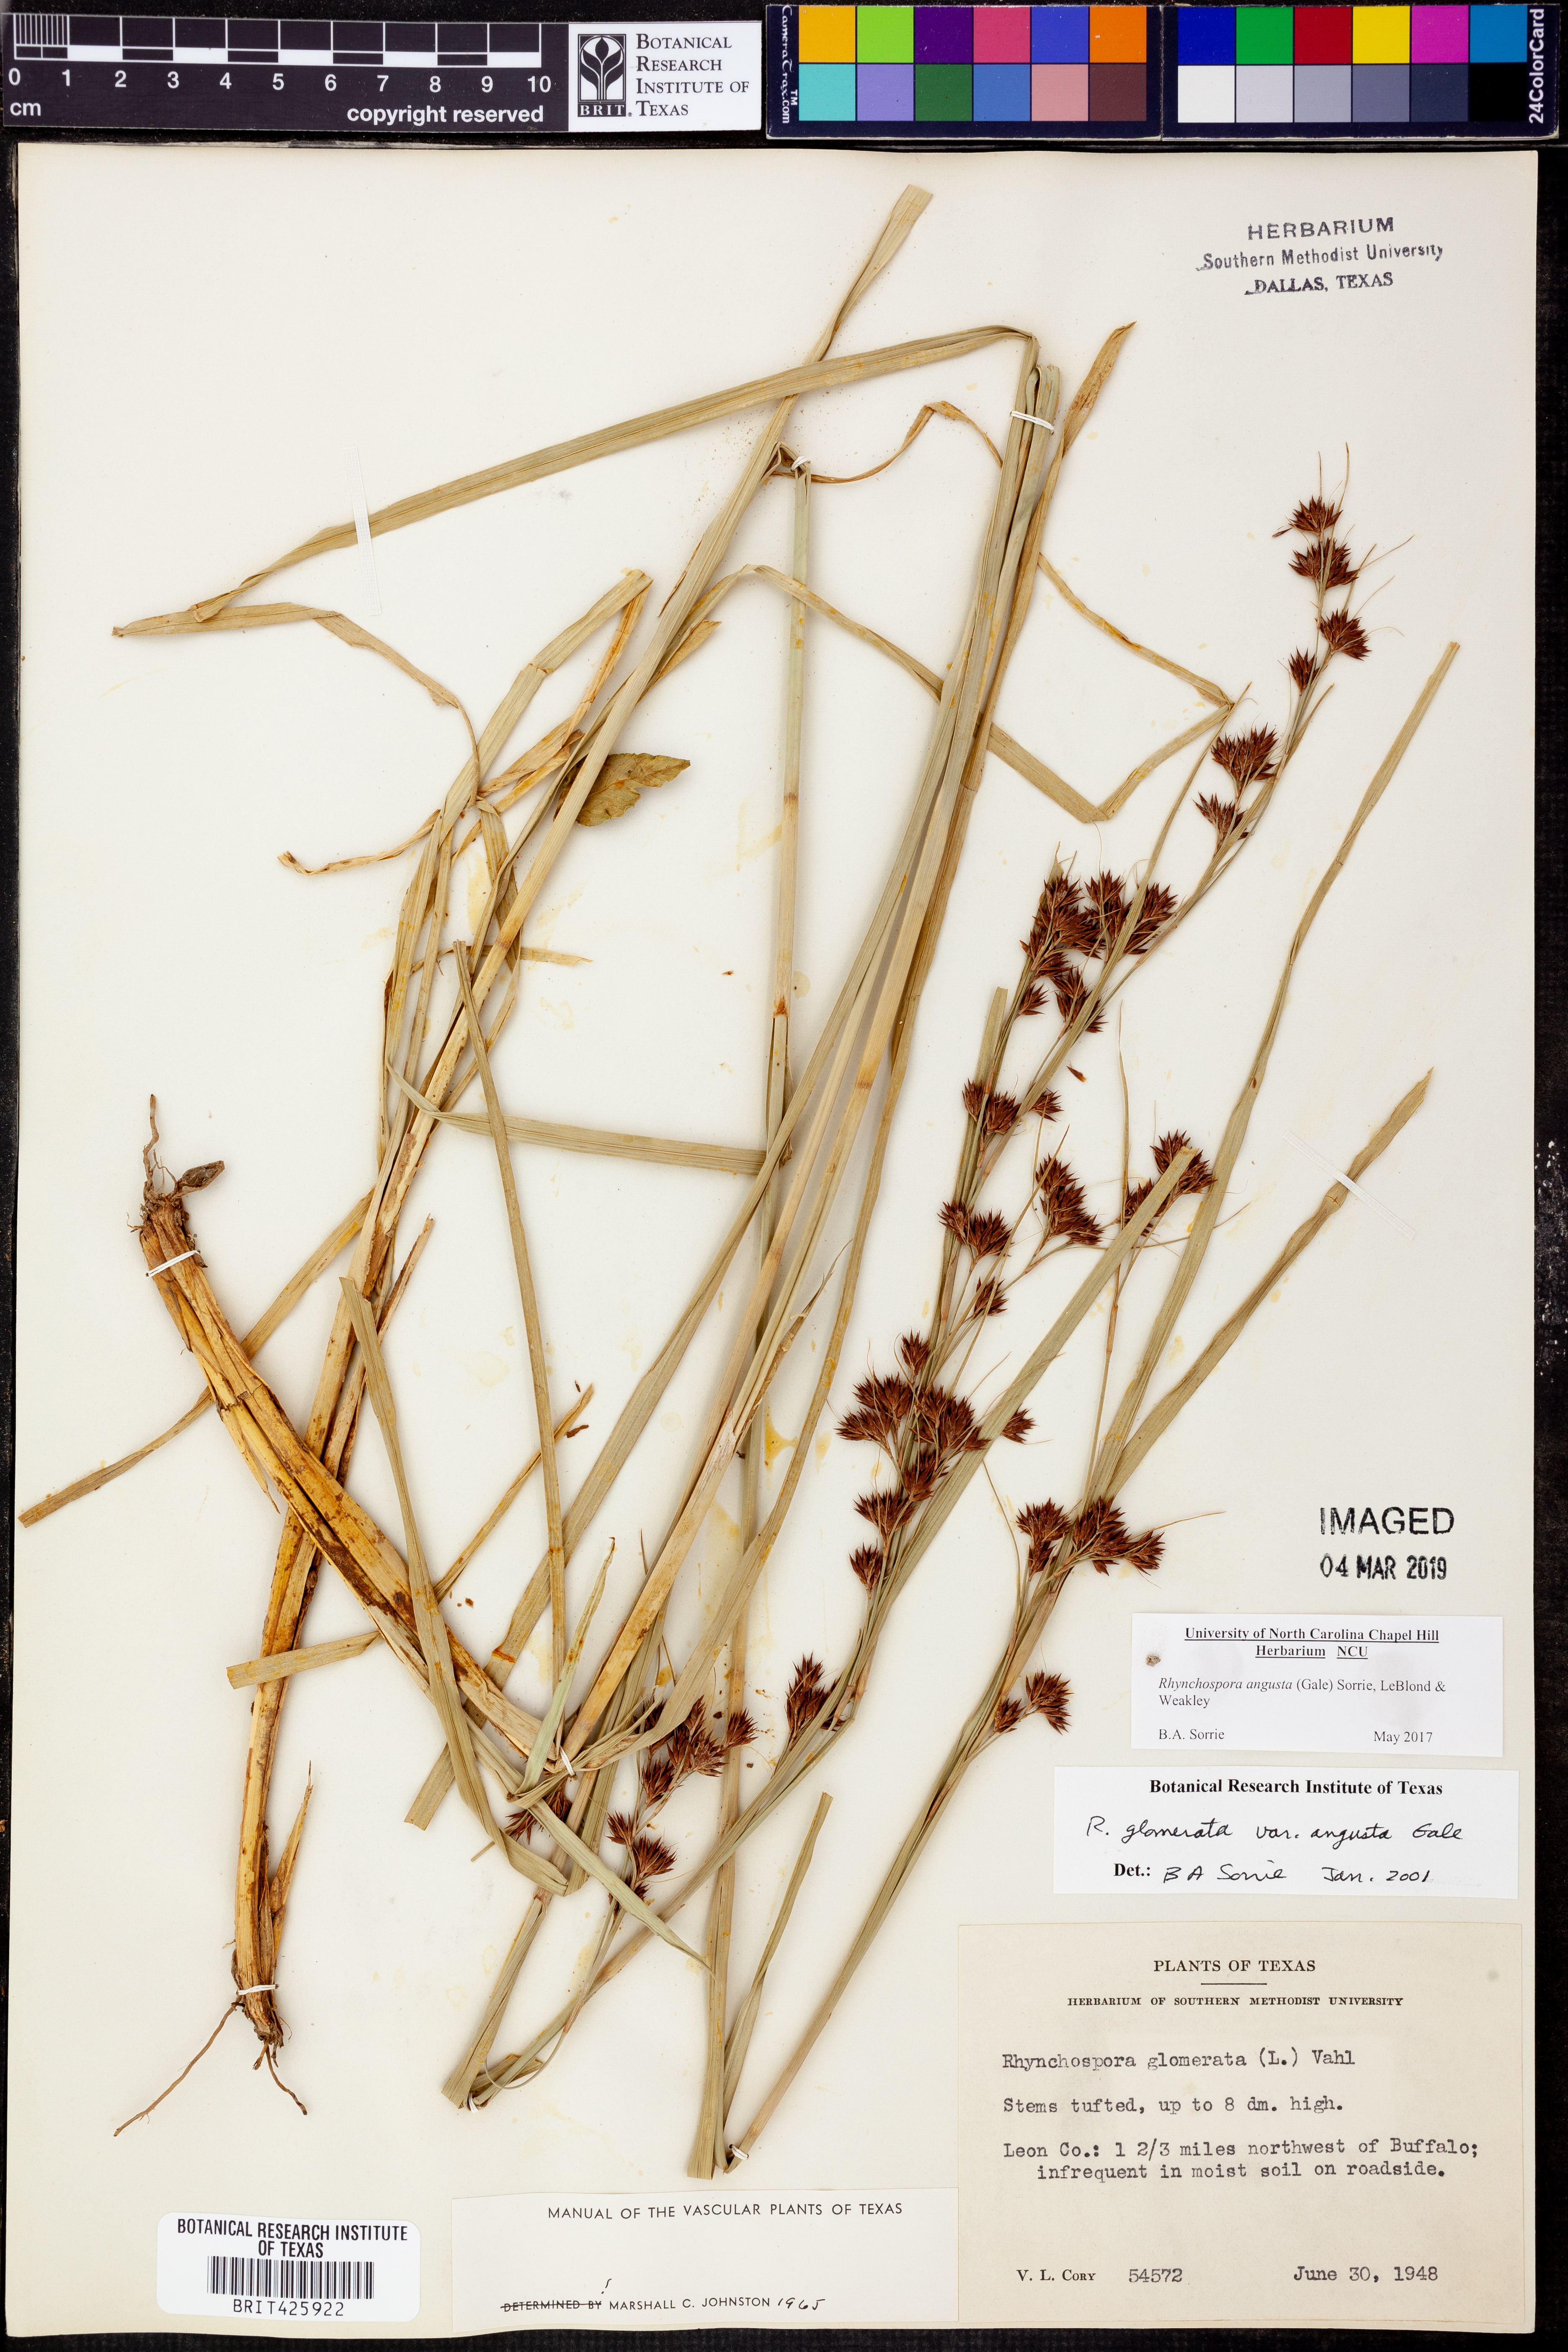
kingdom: Plantae
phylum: Tracheophyta
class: Liliopsida
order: Poales
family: Cyperaceae
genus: Rhynchospora
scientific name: Rhynchospora angusta
